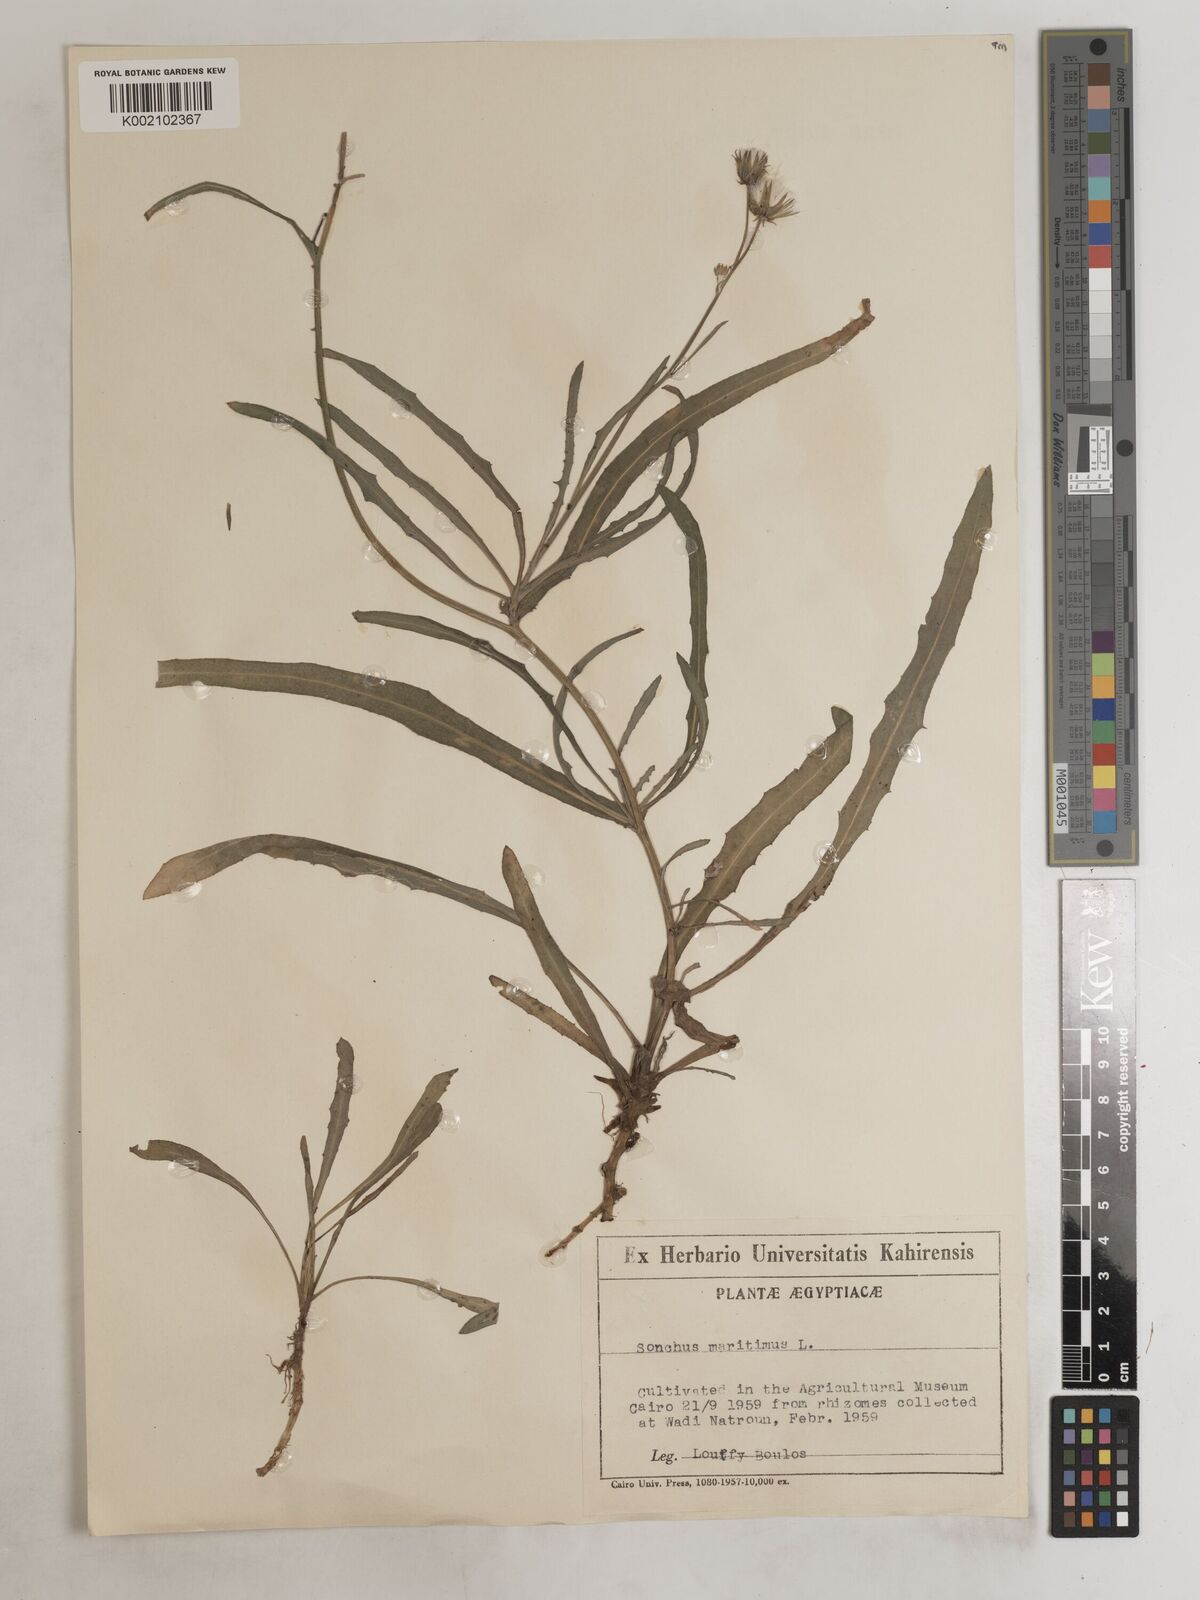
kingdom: Plantae
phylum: Tracheophyta
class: Magnoliopsida
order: Asterales
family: Asteraceae
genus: Sonchus
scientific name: Sonchus maritimus
